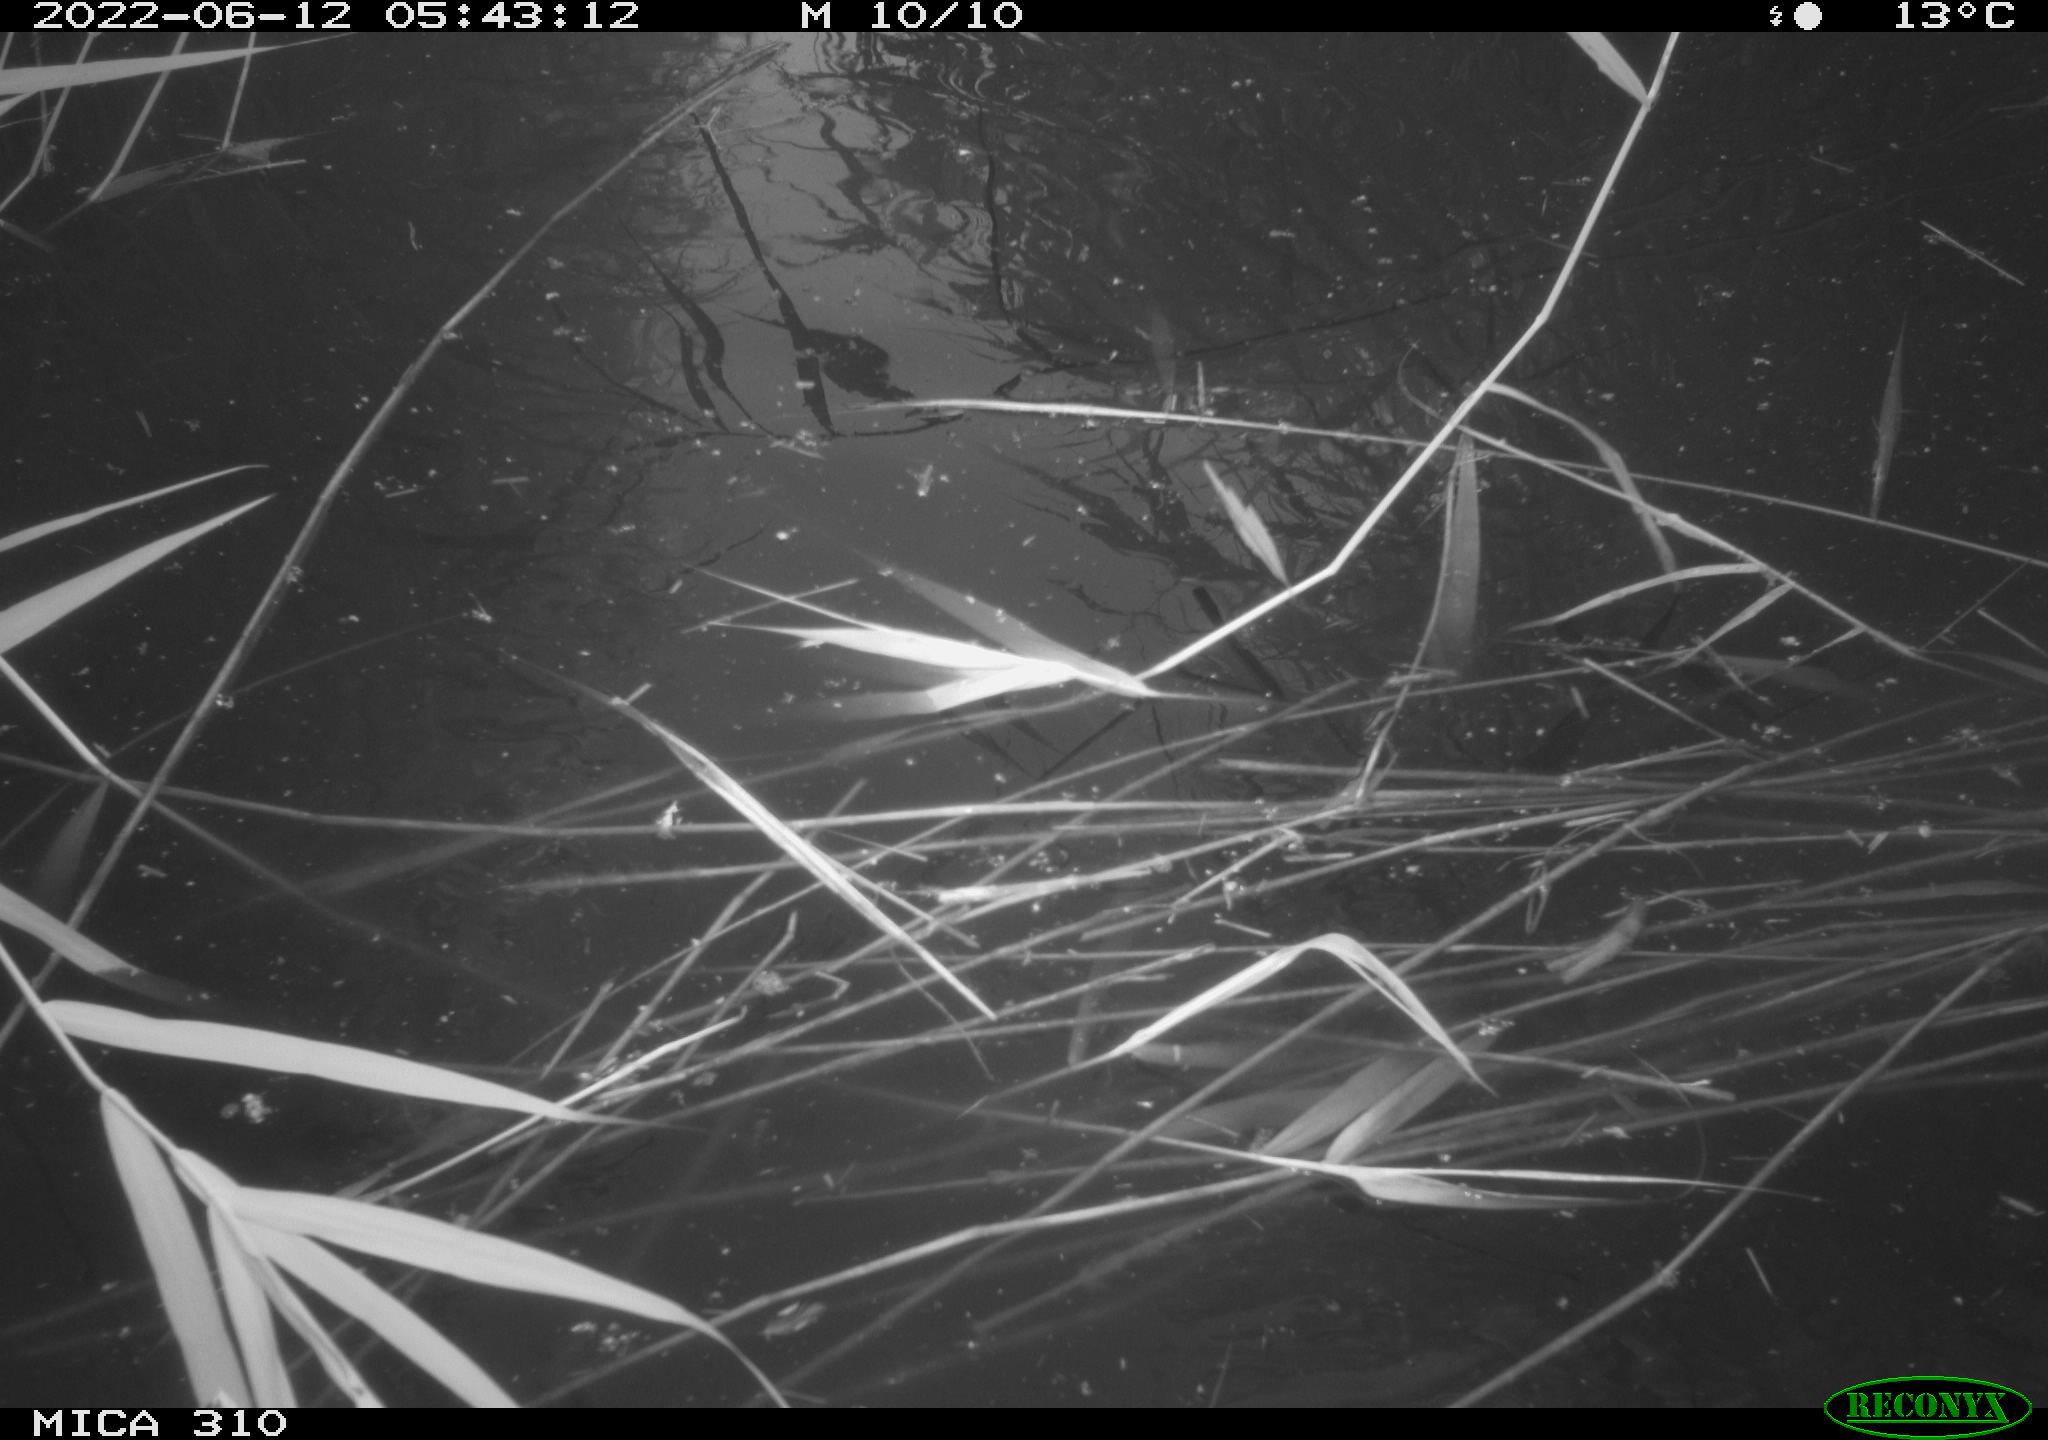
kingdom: Animalia
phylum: Chordata
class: Aves
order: Anseriformes
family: Anatidae
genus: Anas
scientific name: Anas platyrhynchos
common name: Mallard
